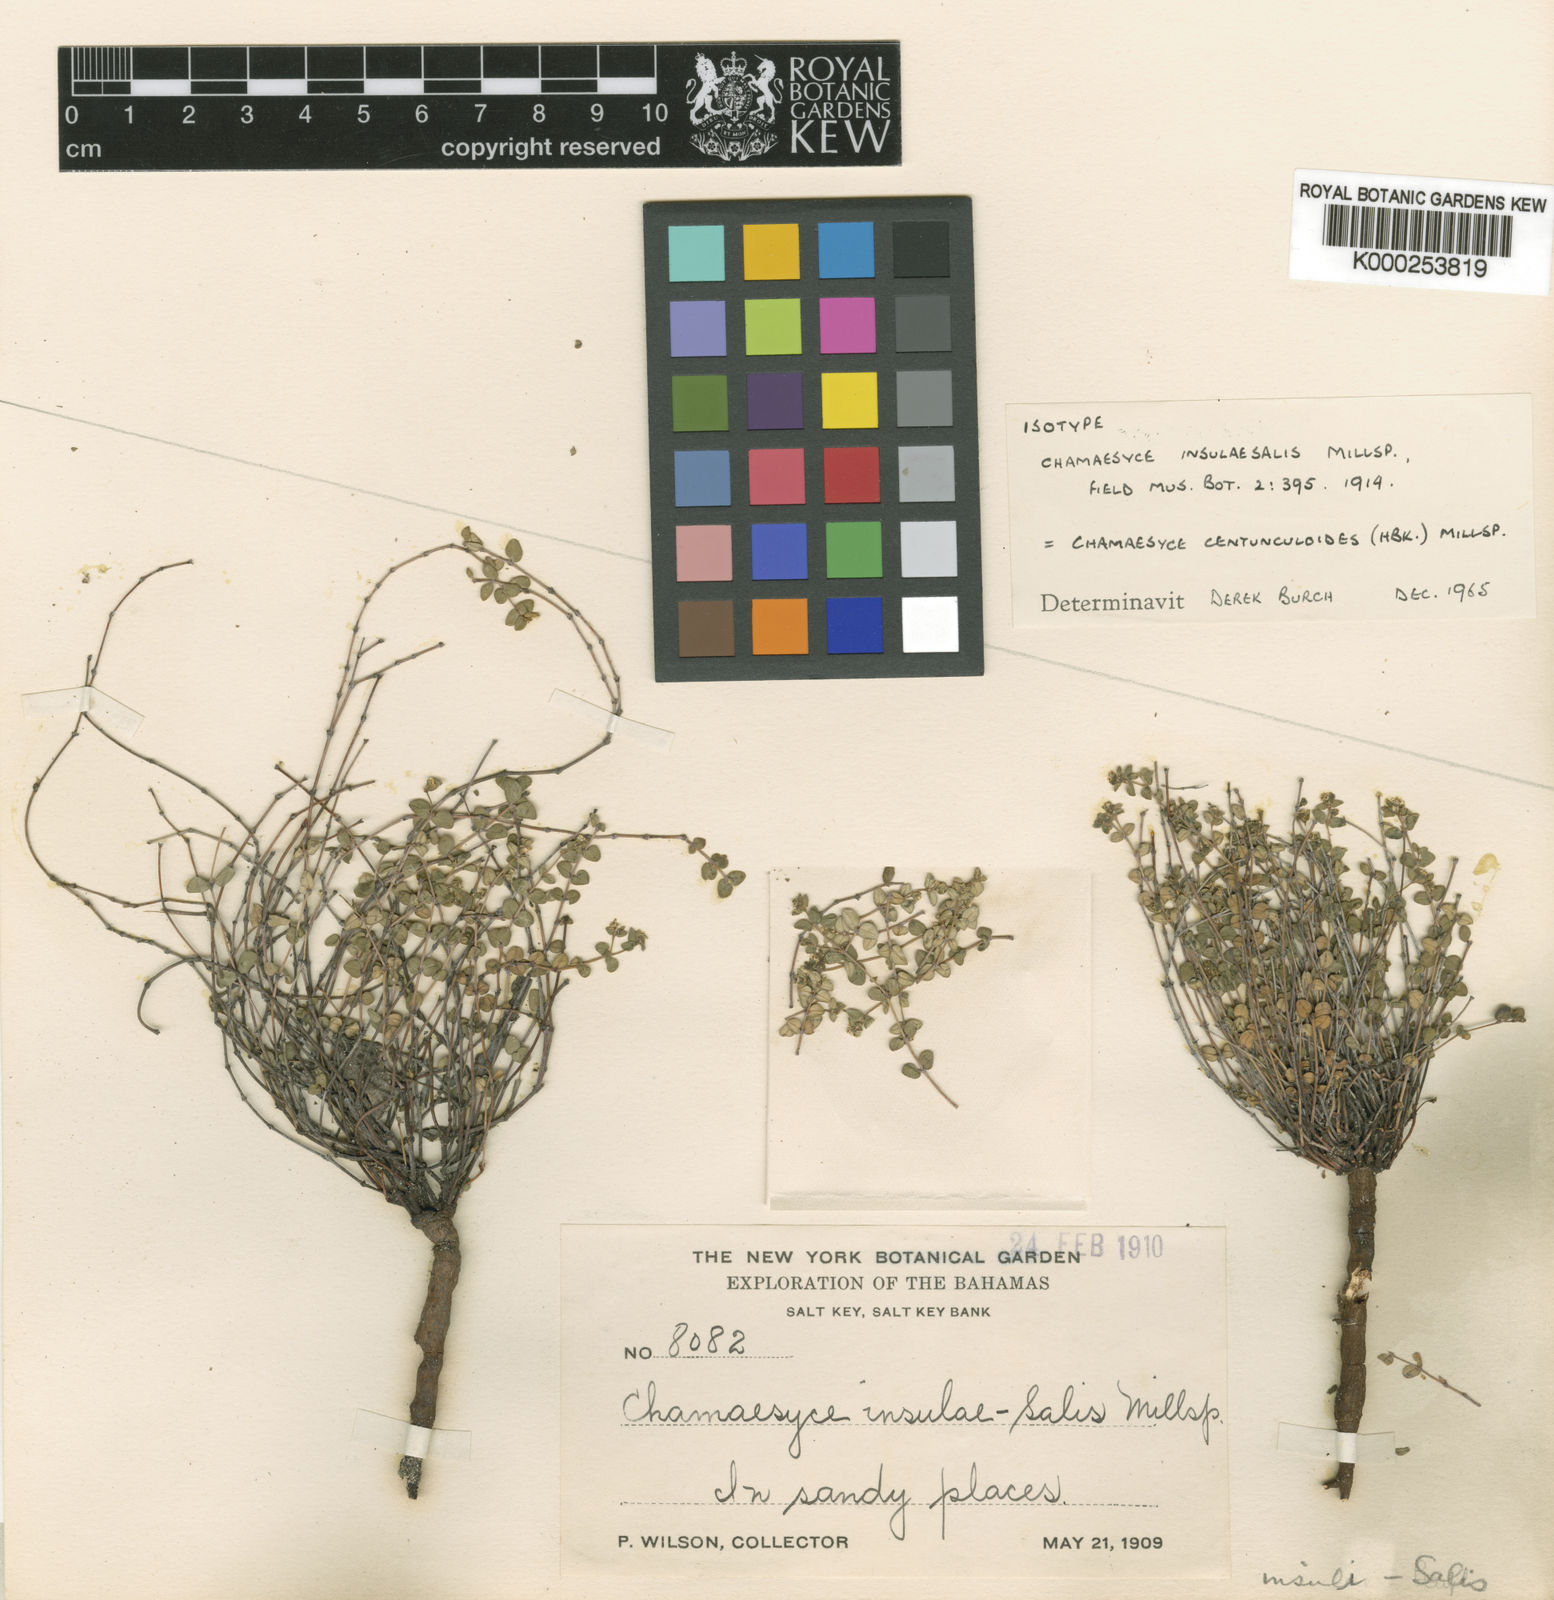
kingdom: Plantae
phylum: Tracheophyta
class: Magnoliopsida
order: Malpighiales
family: Euphorbiaceae
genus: Euphorbia
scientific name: Euphorbia
